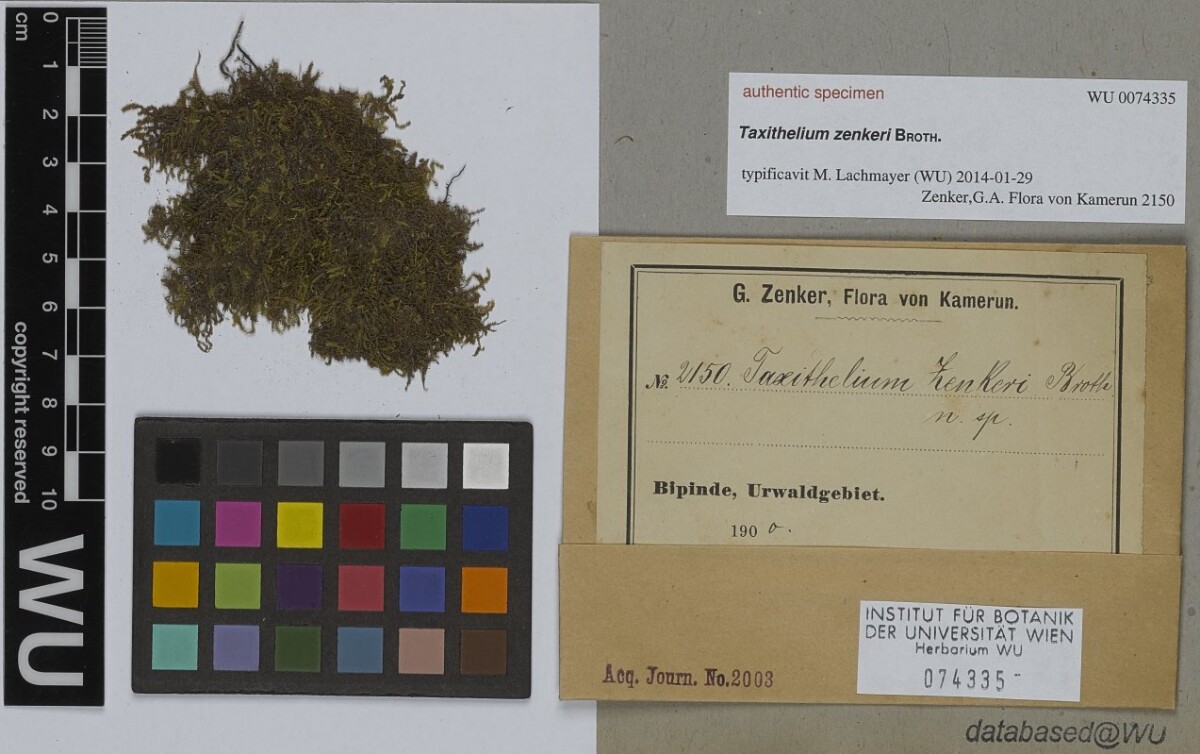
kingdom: Plantae
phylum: Bryophyta
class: Bryopsida
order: Hypnales
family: Sematophyllaceae
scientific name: Sematophyllaceae
